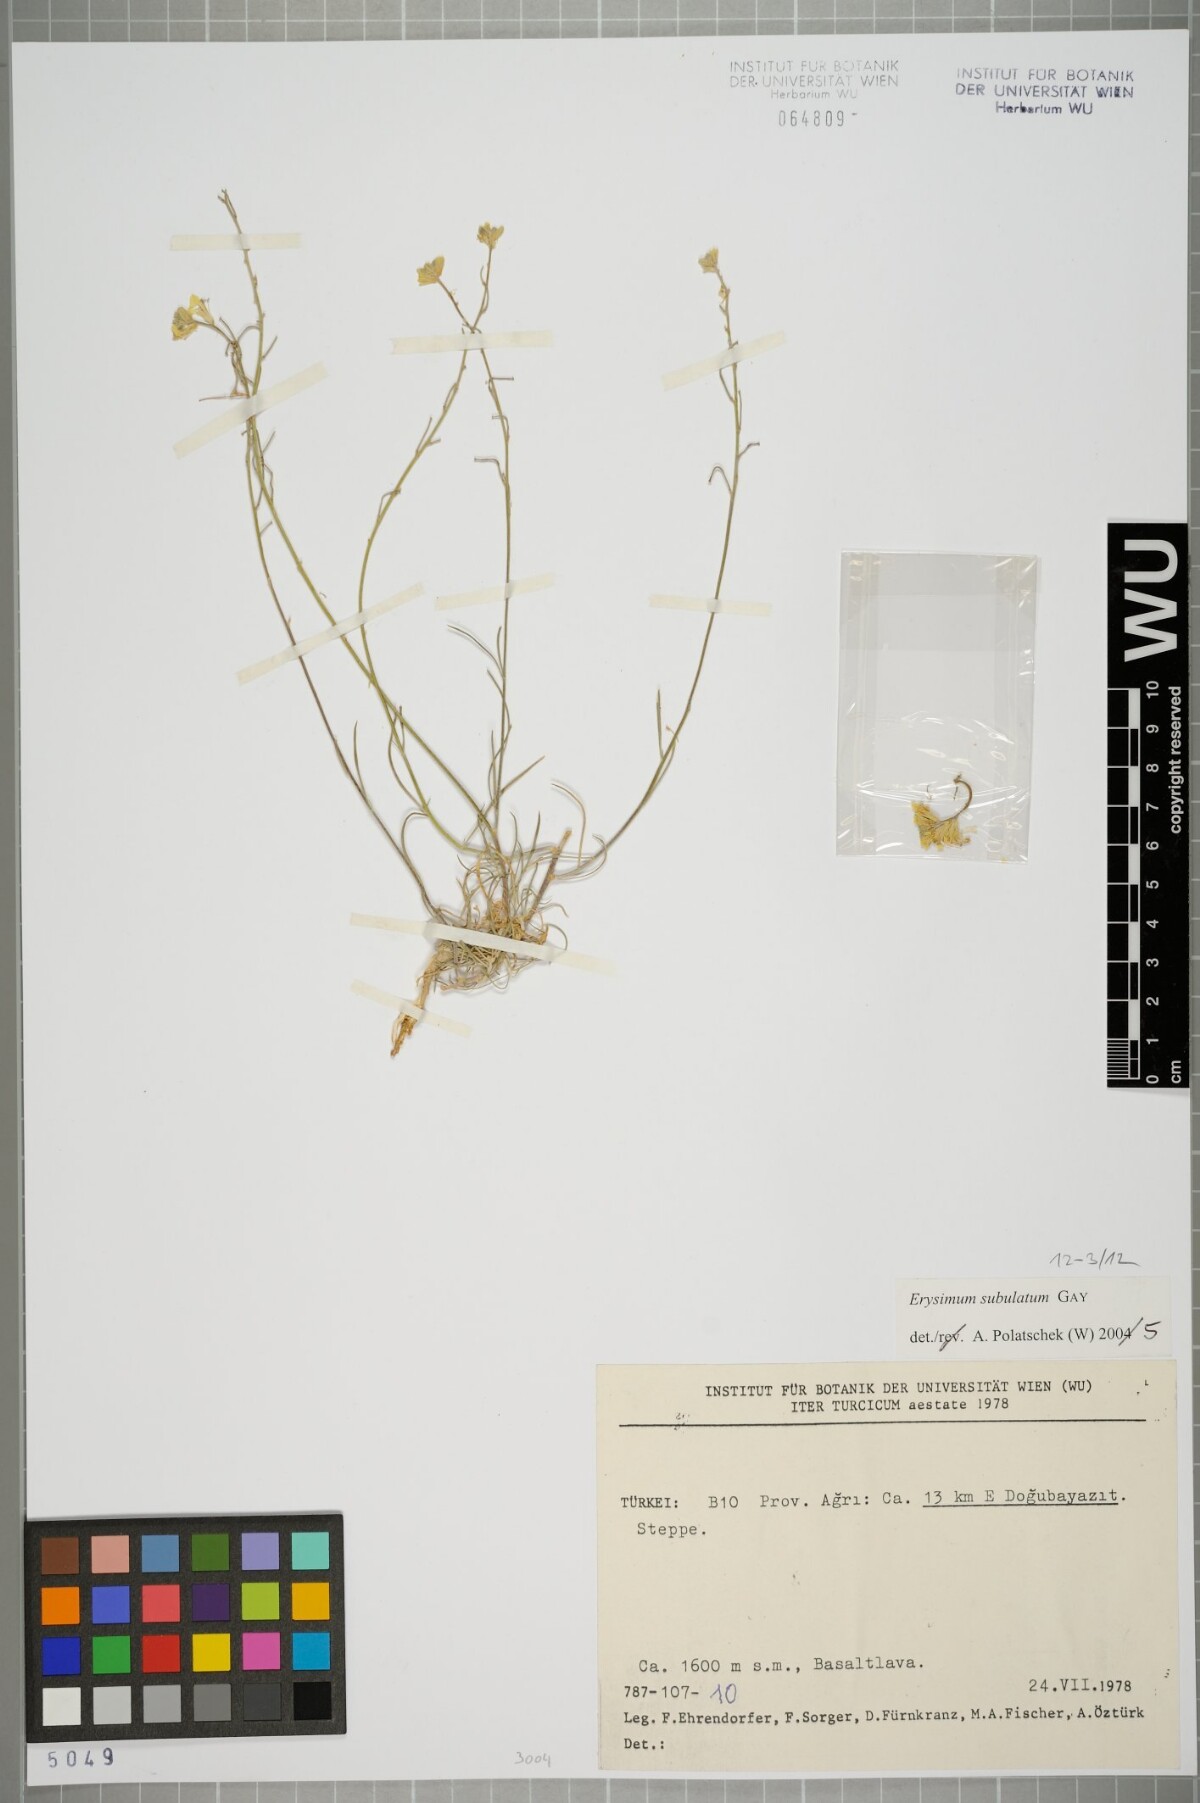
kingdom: Plantae
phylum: Tracheophyta
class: Magnoliopsida
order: Brassicales
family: Brassicaceae
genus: Erysimum
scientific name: Erysimum subulatum
